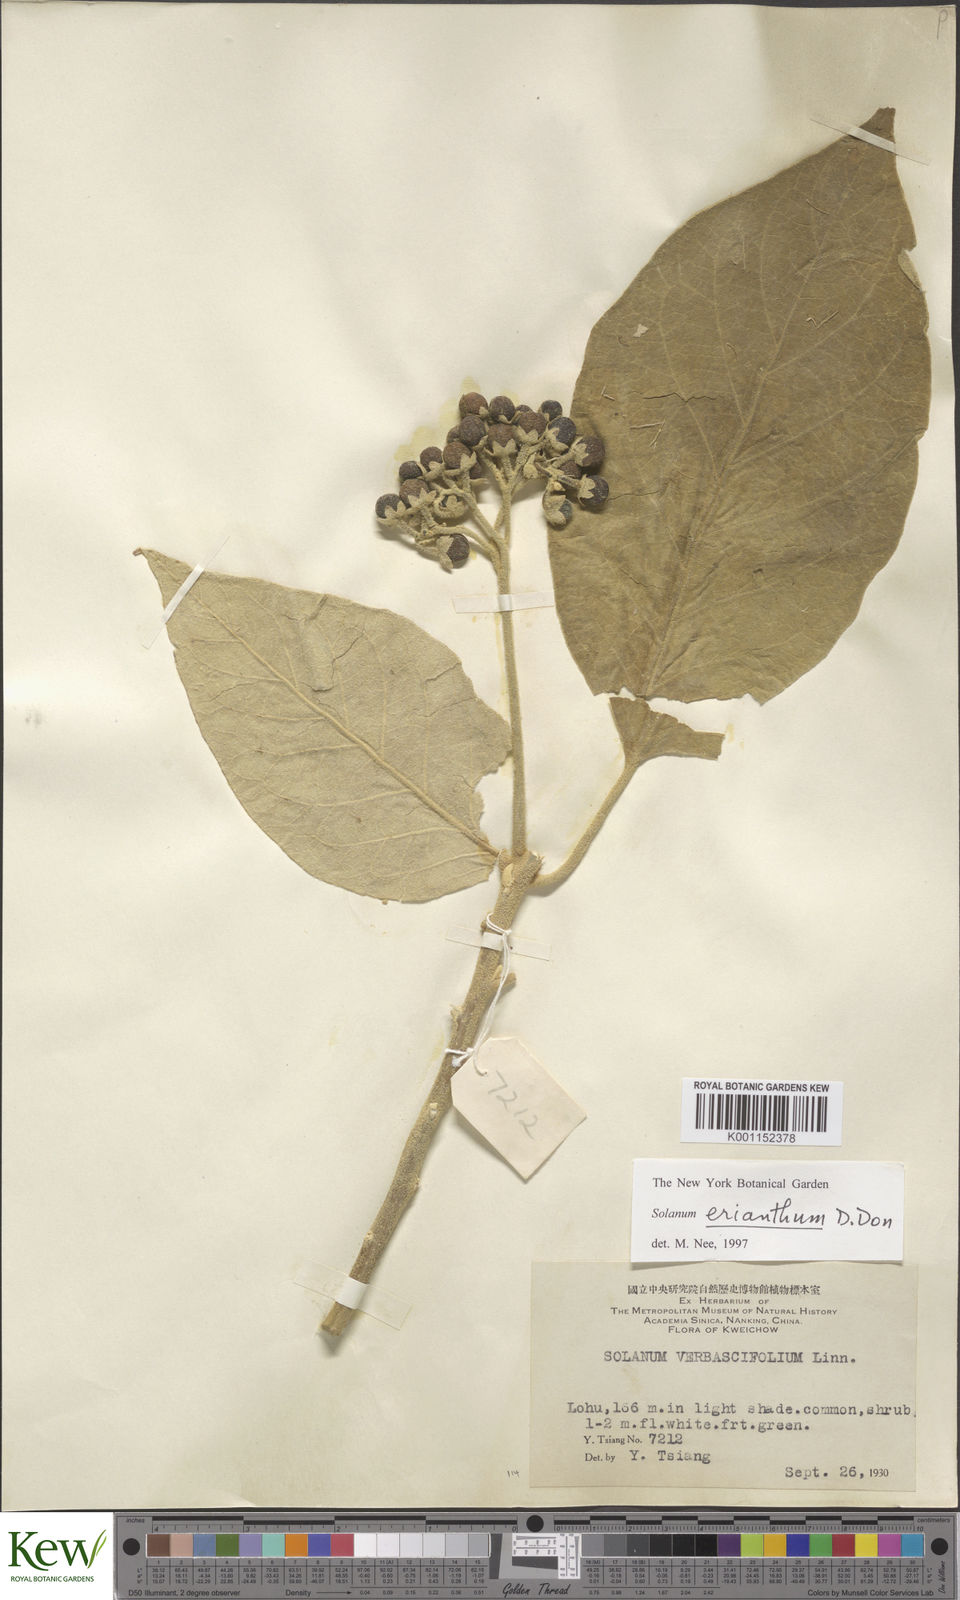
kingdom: Plantae
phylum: Tracheophyta
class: Magnoliopsida
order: Solanales
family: Solanaceae
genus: Solanum
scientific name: Solanum donianum
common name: Mullein nightshade
